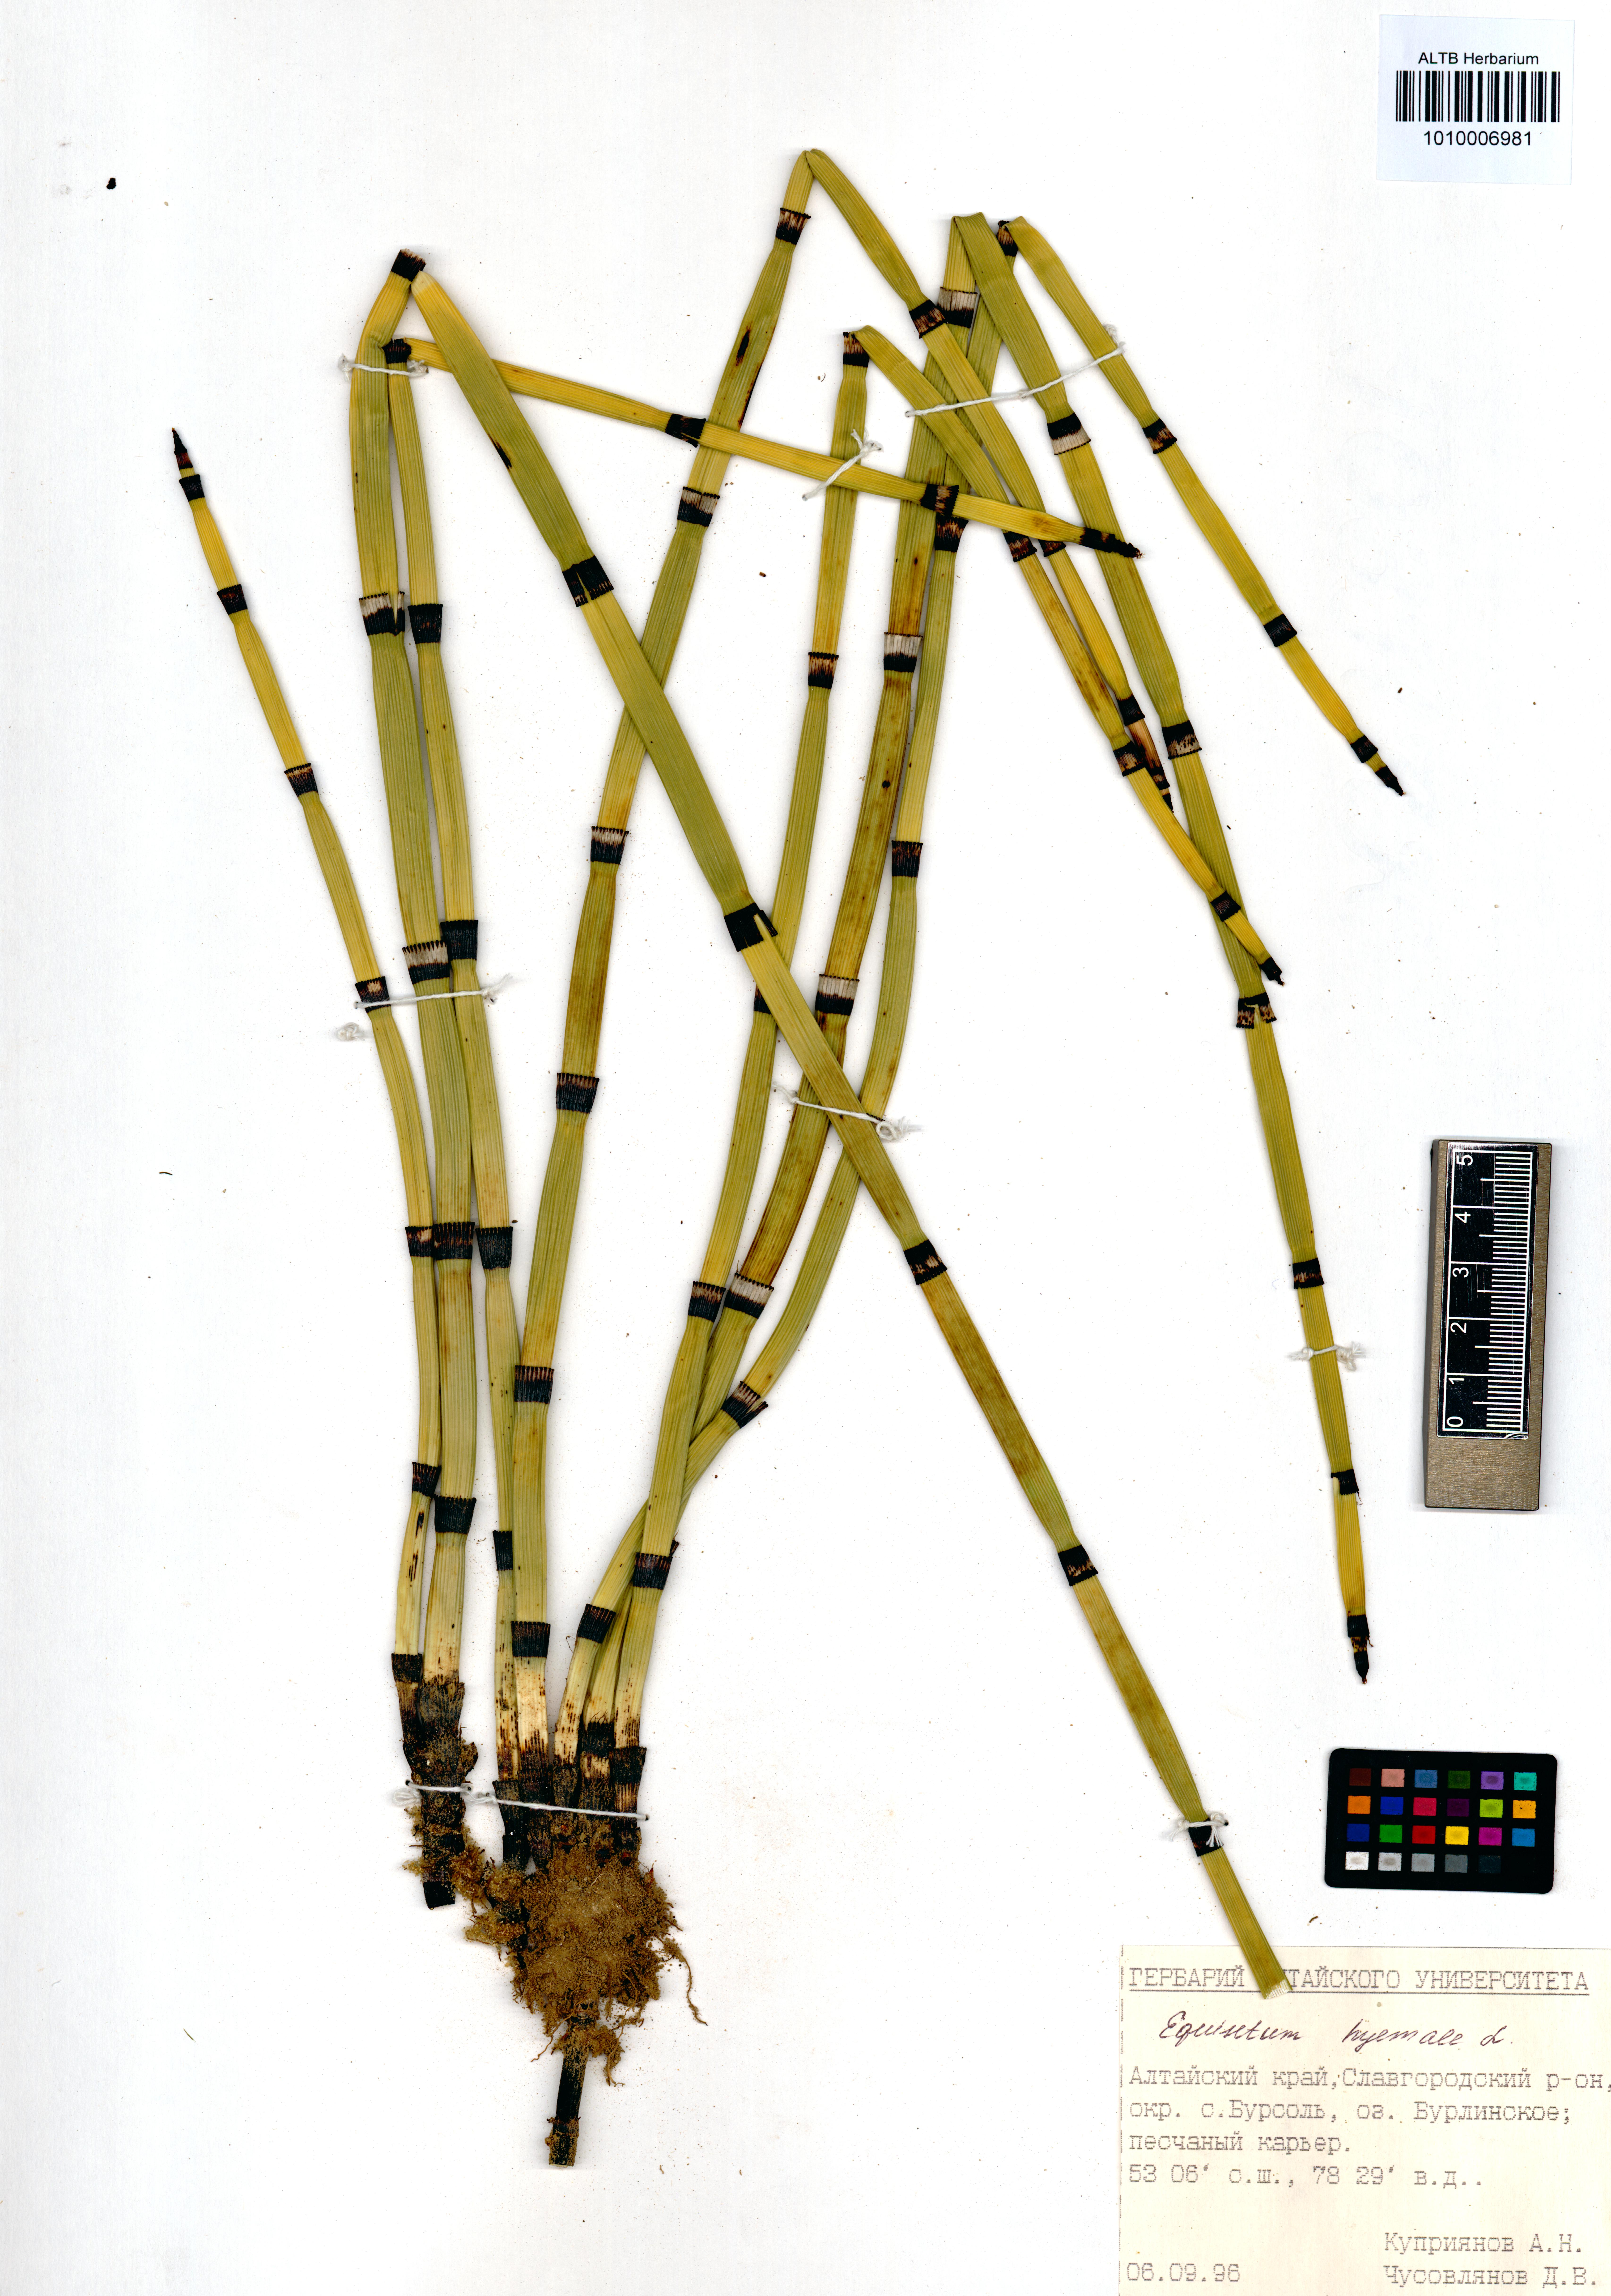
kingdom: Plantae
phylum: Tracheophyta
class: Polypodiopsida
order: Equisetales
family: Equisetaceae
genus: Equisetum
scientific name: Equisetum hyemale
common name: Rough horsetail
